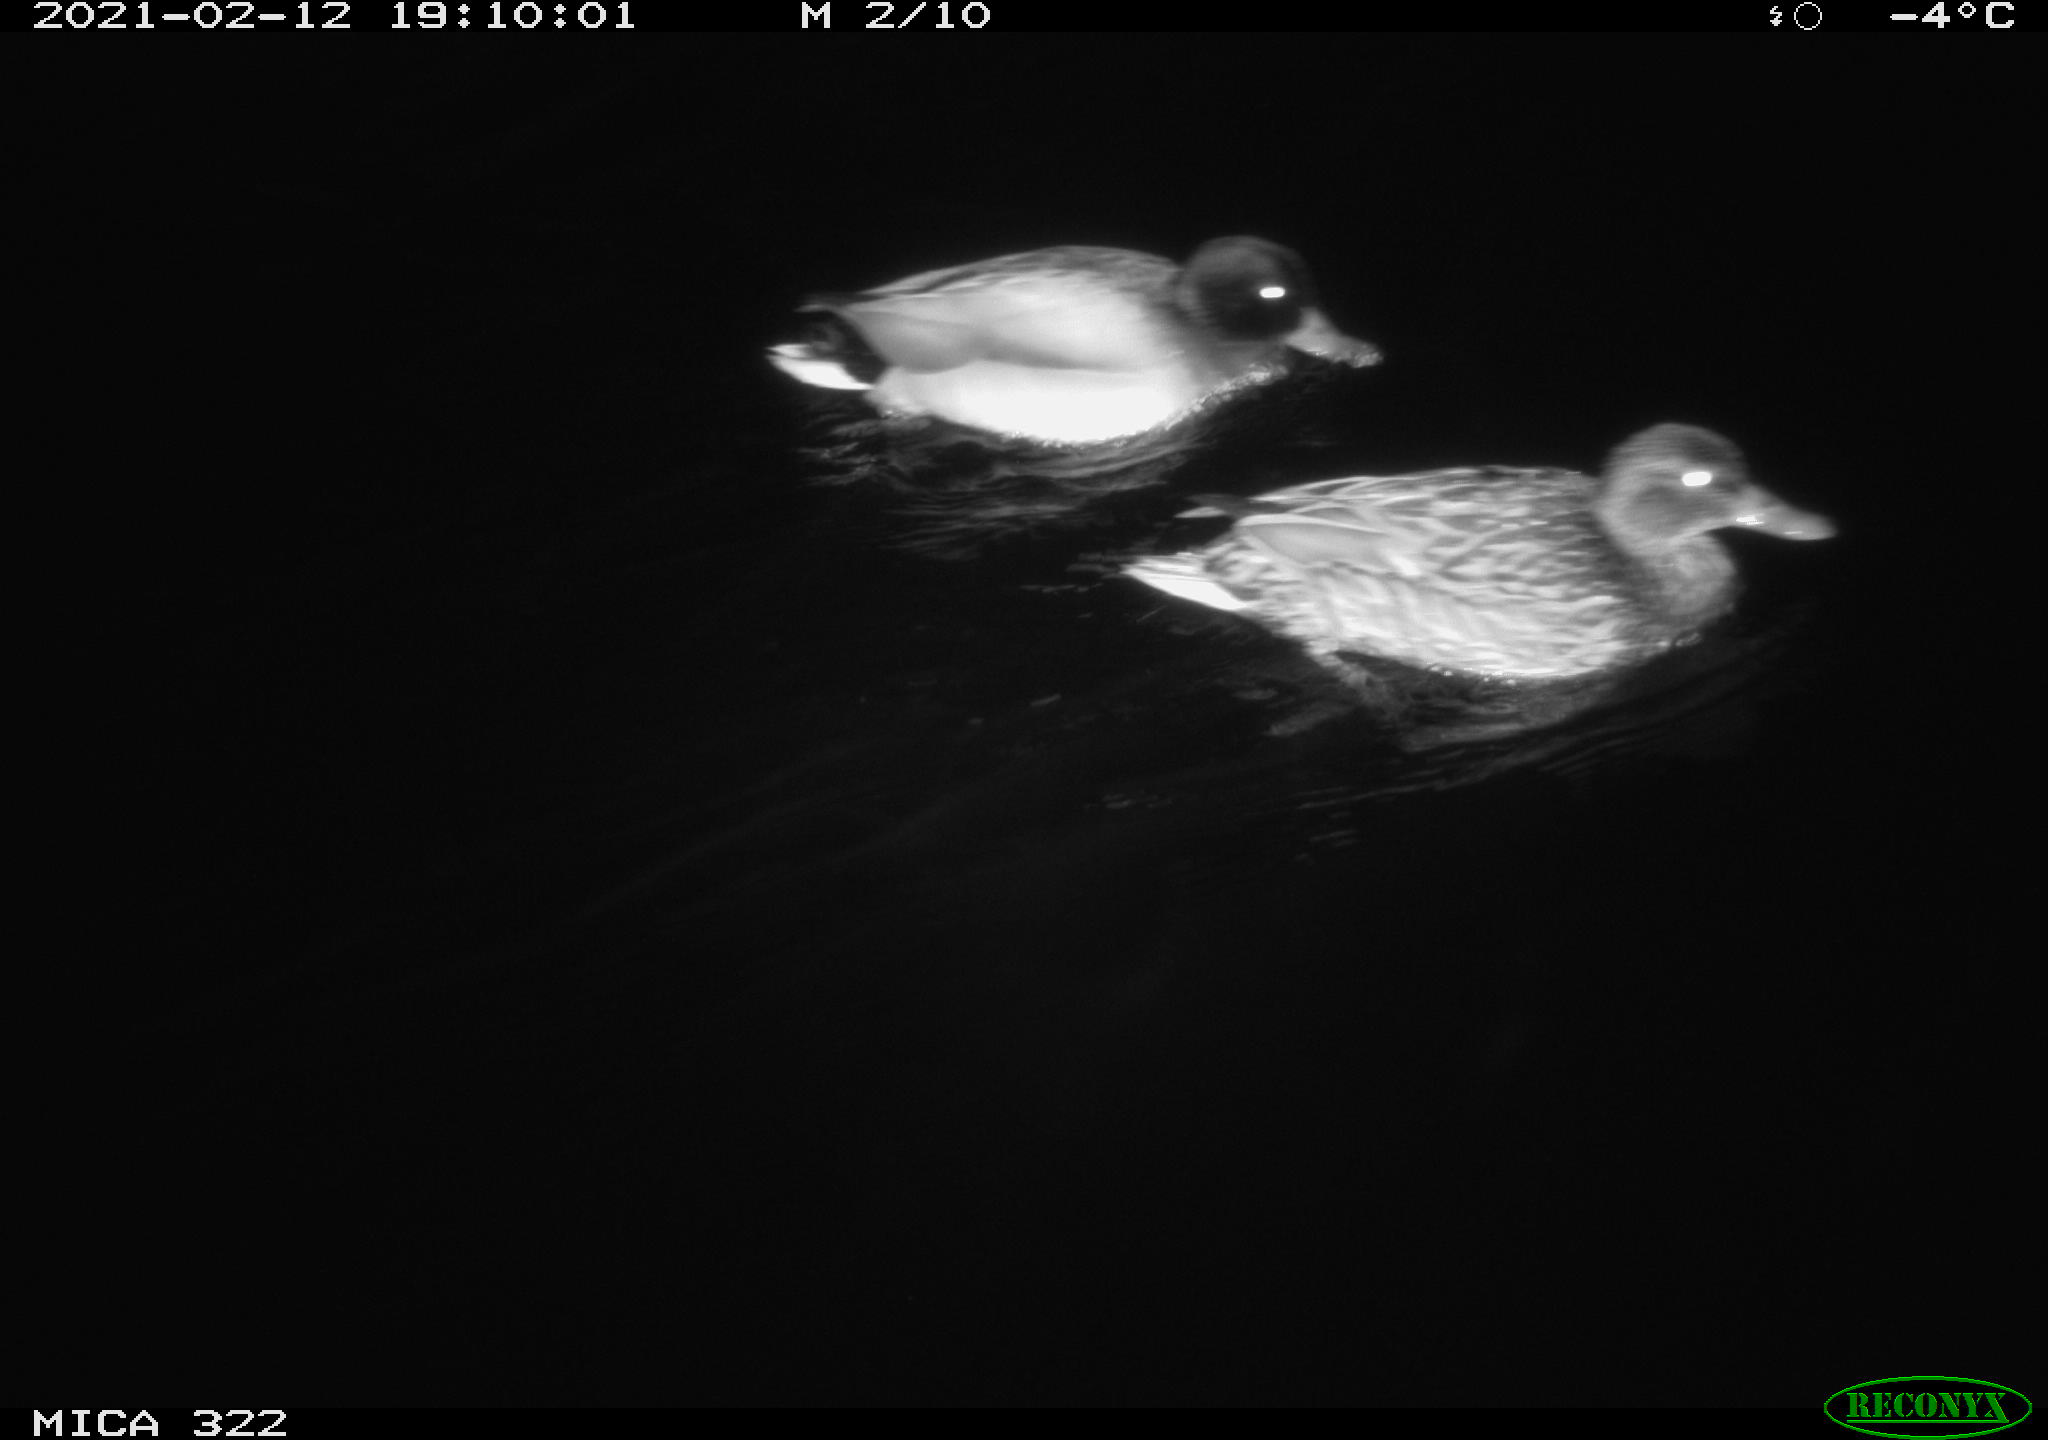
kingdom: Animalia
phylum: Chordata
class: Aves
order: Anseriformes
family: Anatidae
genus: Anas
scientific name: Anas platyrhynchos
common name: Mallard
